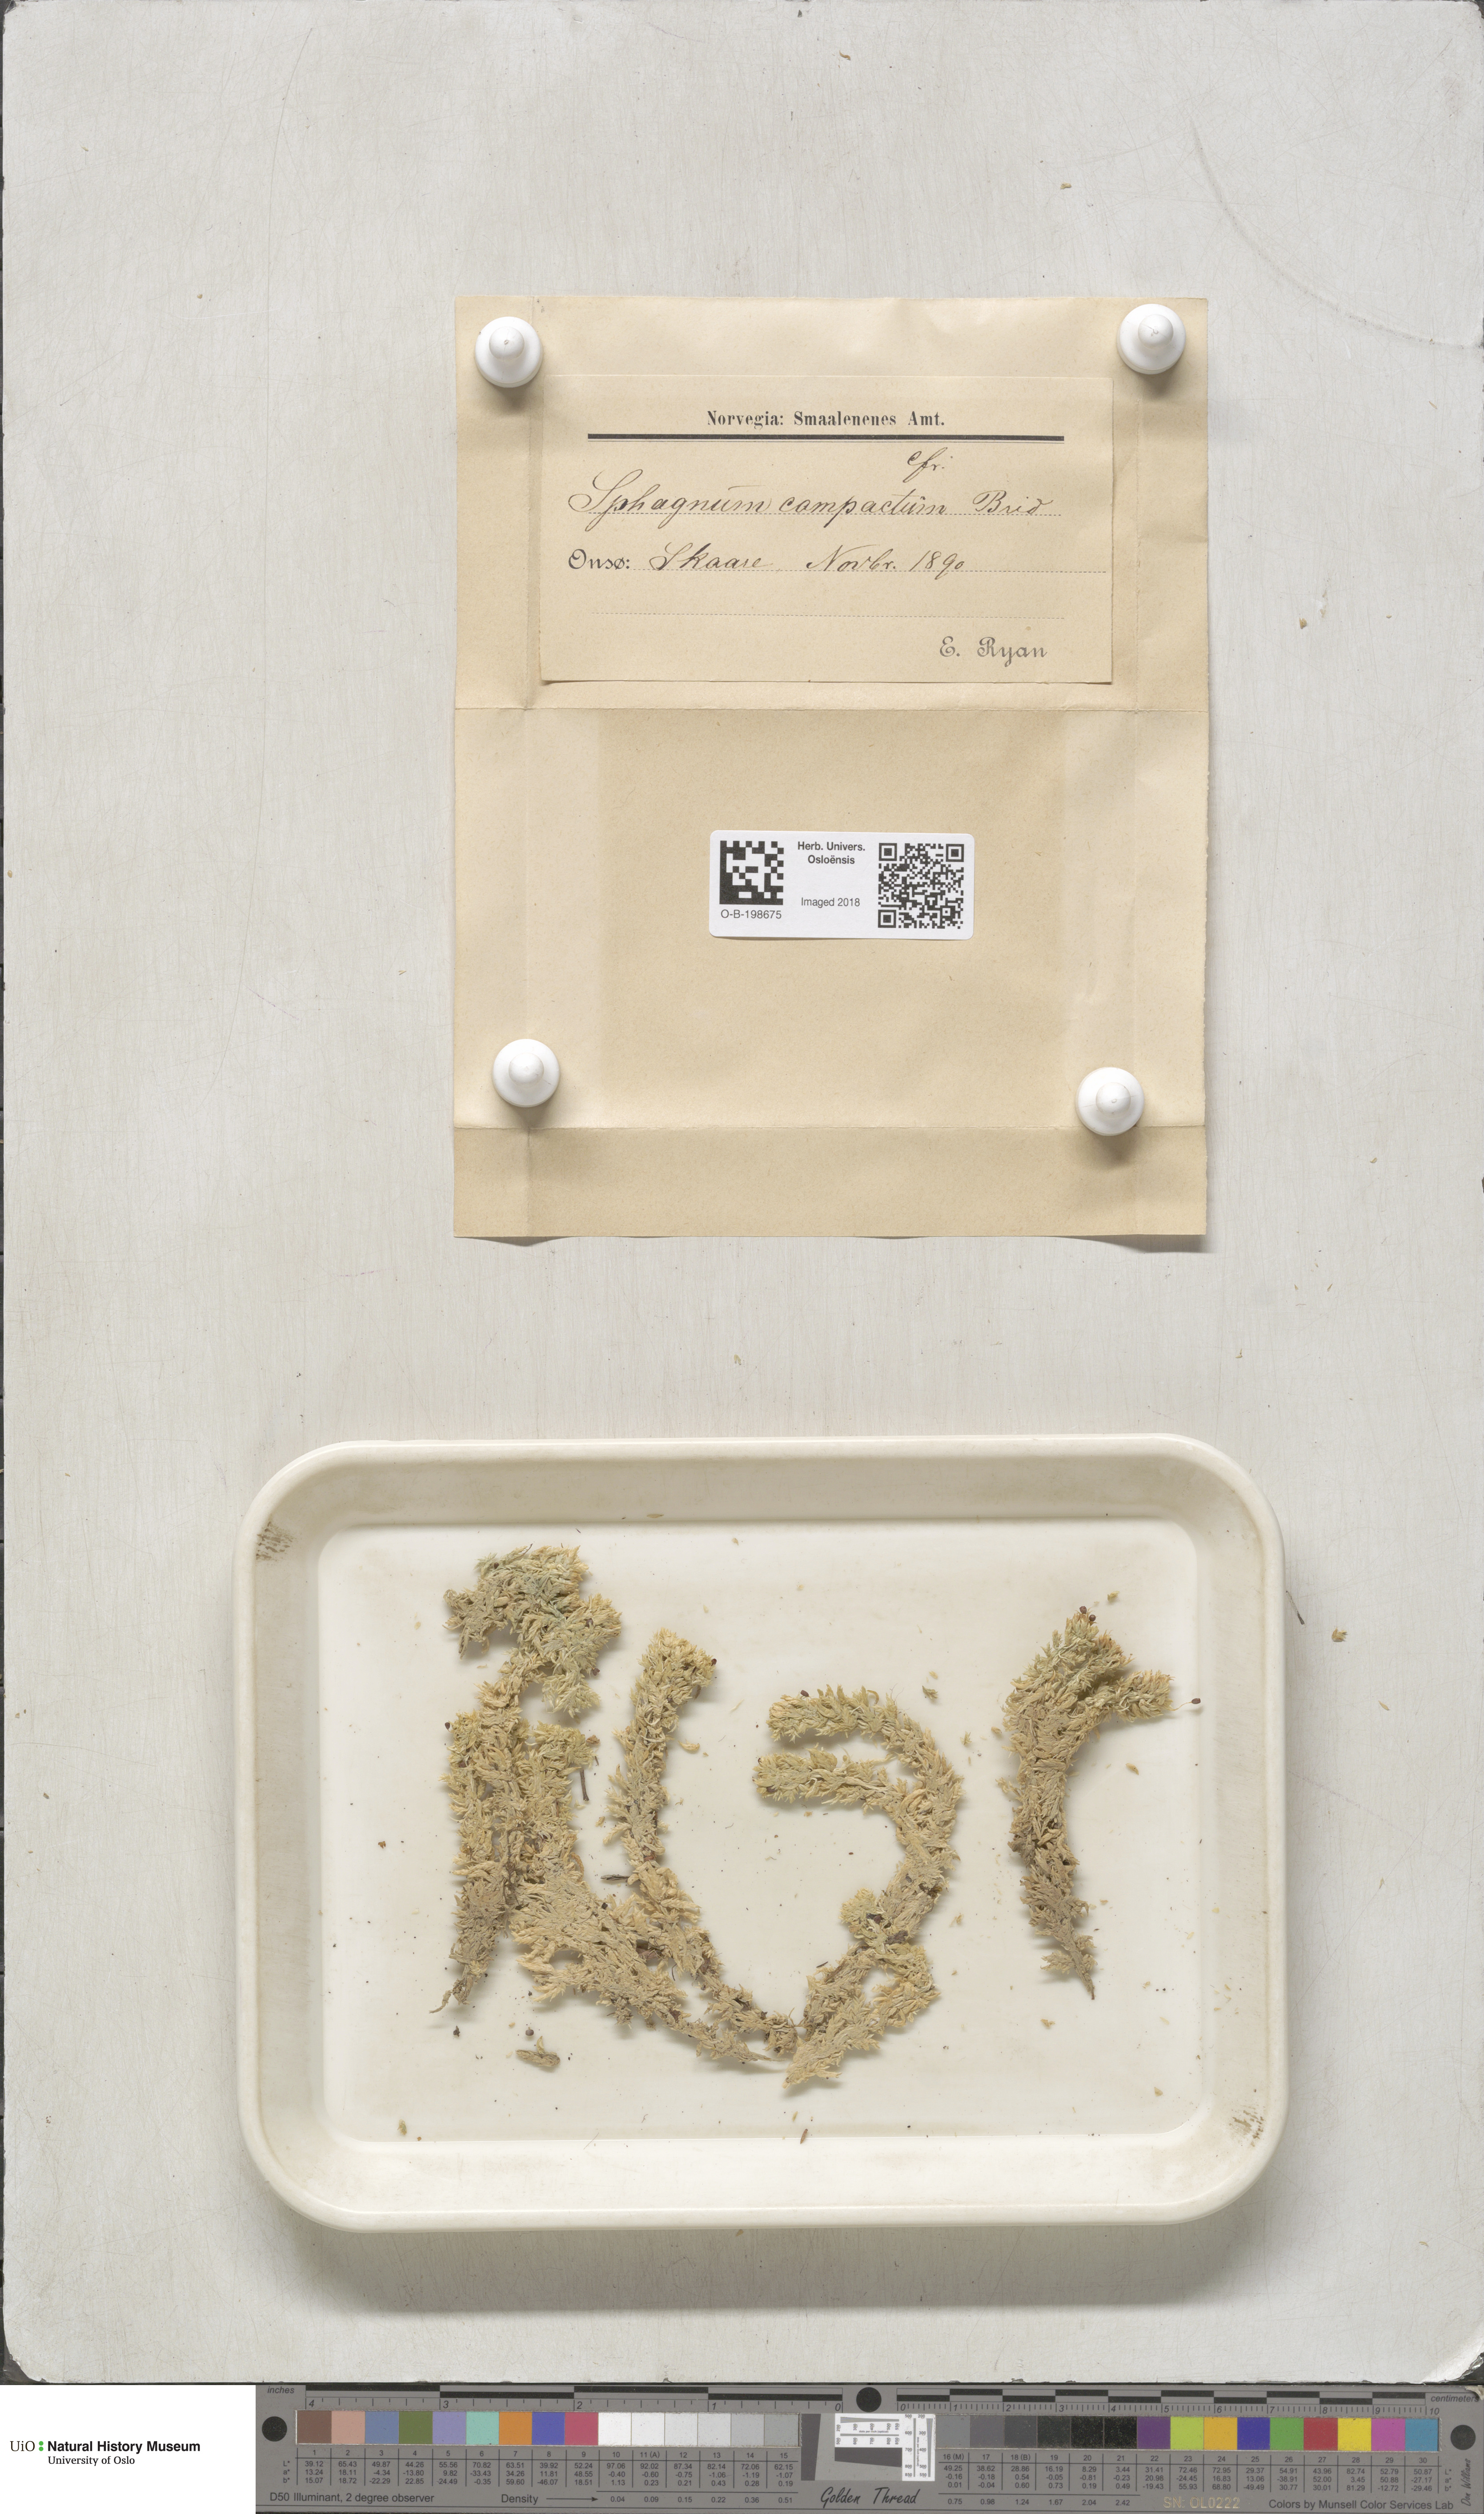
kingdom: Plantae
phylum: Bryophyta
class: Sphagnopsida
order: Sphagnales
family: Sphagnaceae
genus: Sphagnum
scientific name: Sphagnum compactum
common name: Compact peat moss
